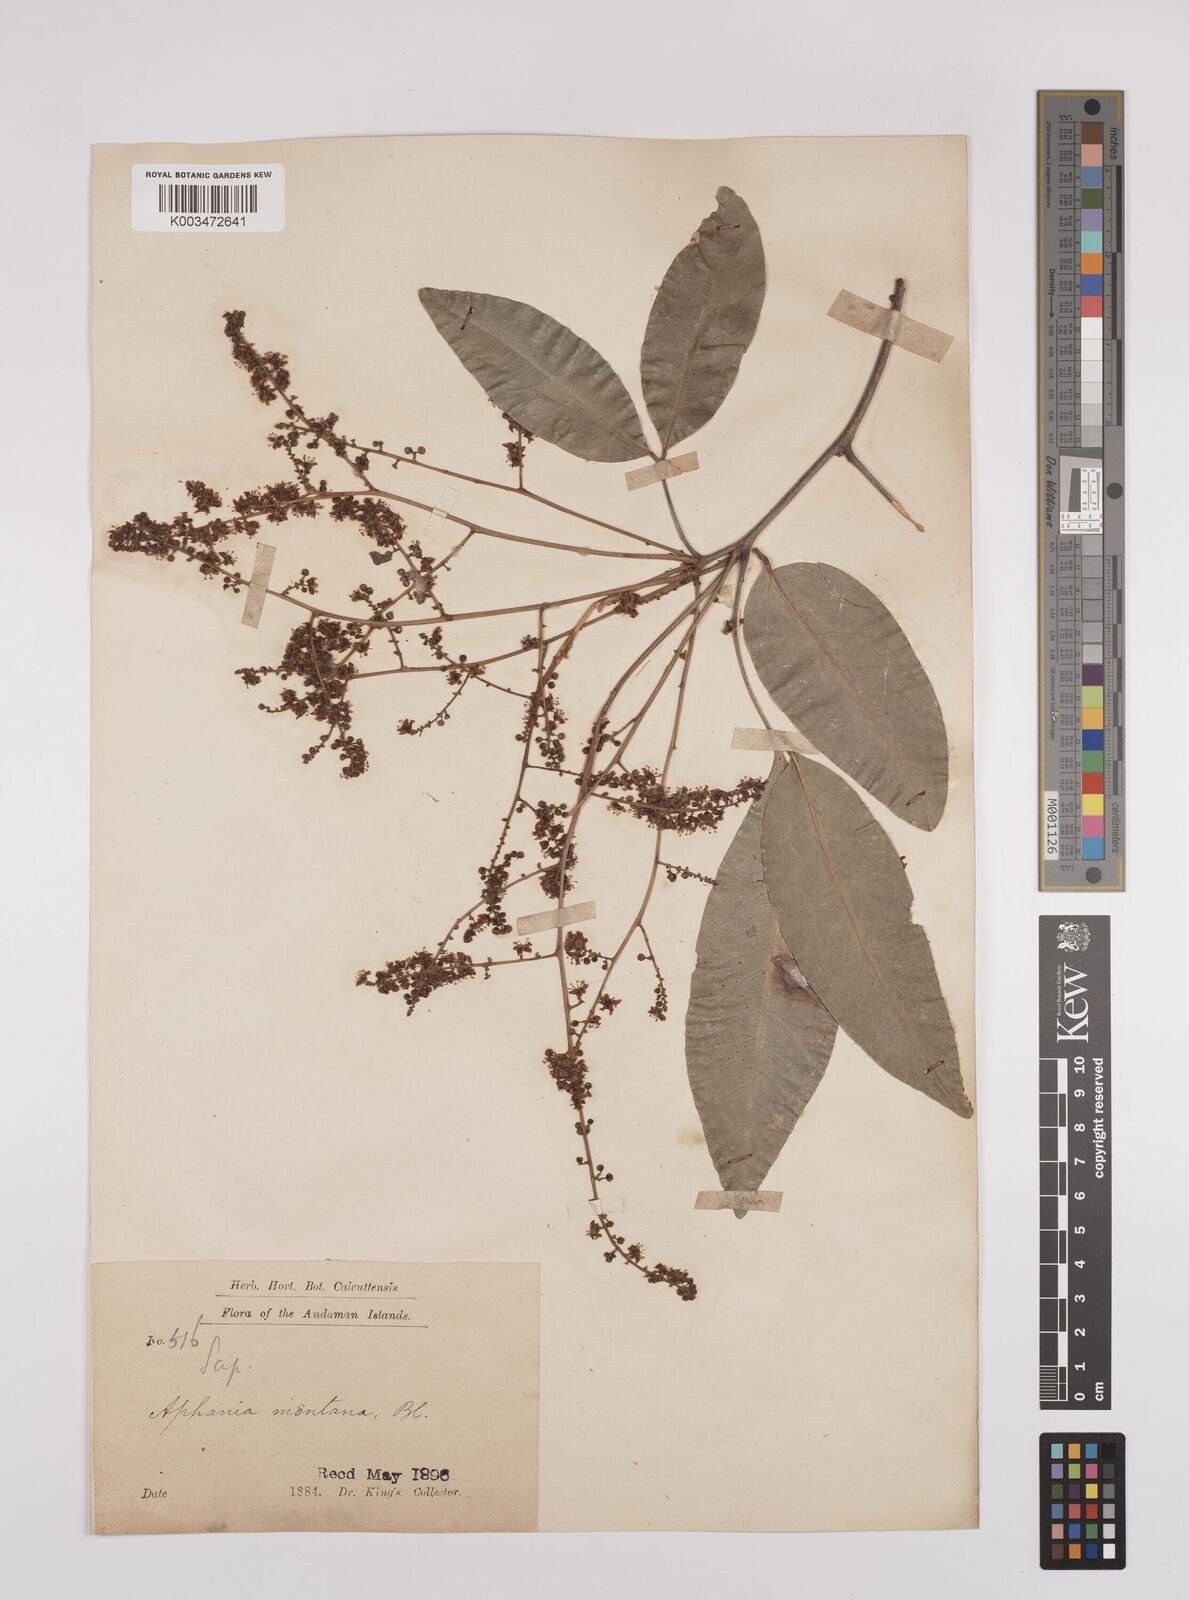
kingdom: Plantae
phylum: Tracheophyta
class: Magnoliopsida
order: Sapindales
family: Sapindaceae
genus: Lepisanthes
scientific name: Lepisanthes senegalensis
